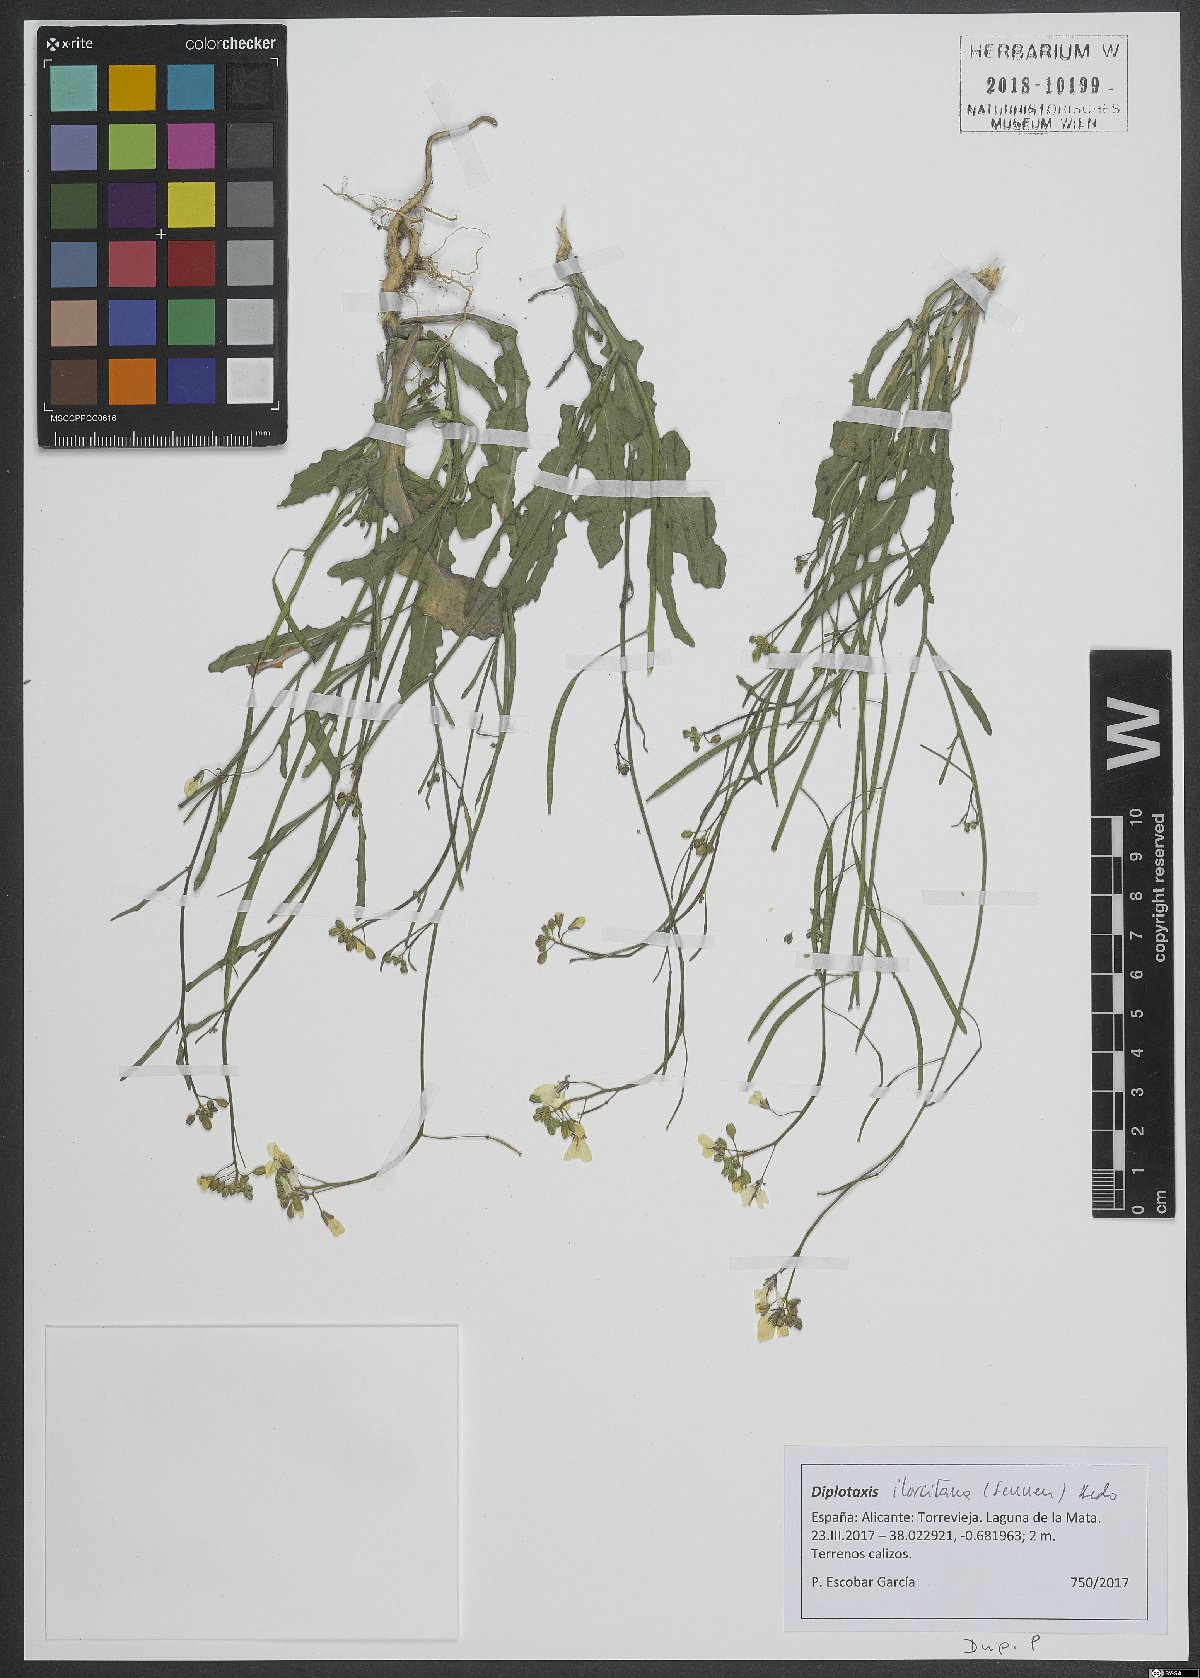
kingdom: Plantae
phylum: Tracheophyta
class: Magnoliopsida
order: Brassicales
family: Brassicaceae
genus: Diplotaxis
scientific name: Diplotaxis ilorcitana
